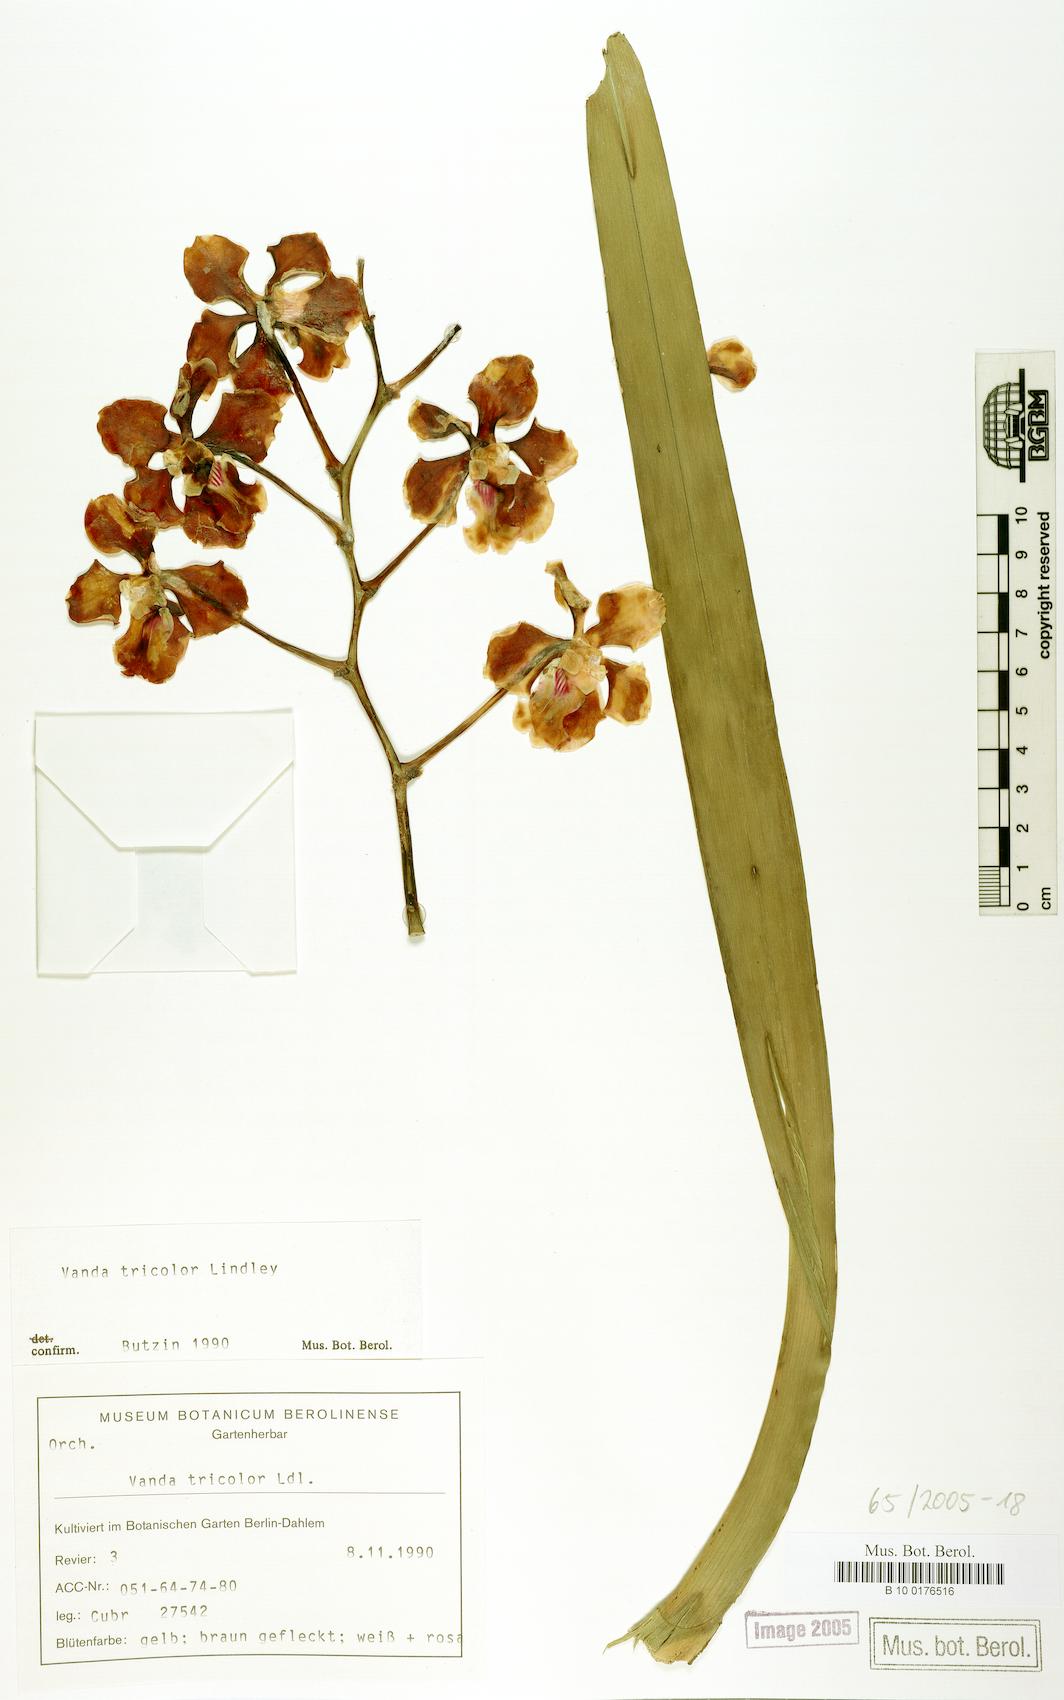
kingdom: Plantae
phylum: Tracheophyta
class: Liliopsida
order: Asparagales
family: Orchidaceae
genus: Vanda
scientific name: Vanda tricolor
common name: Orchid
